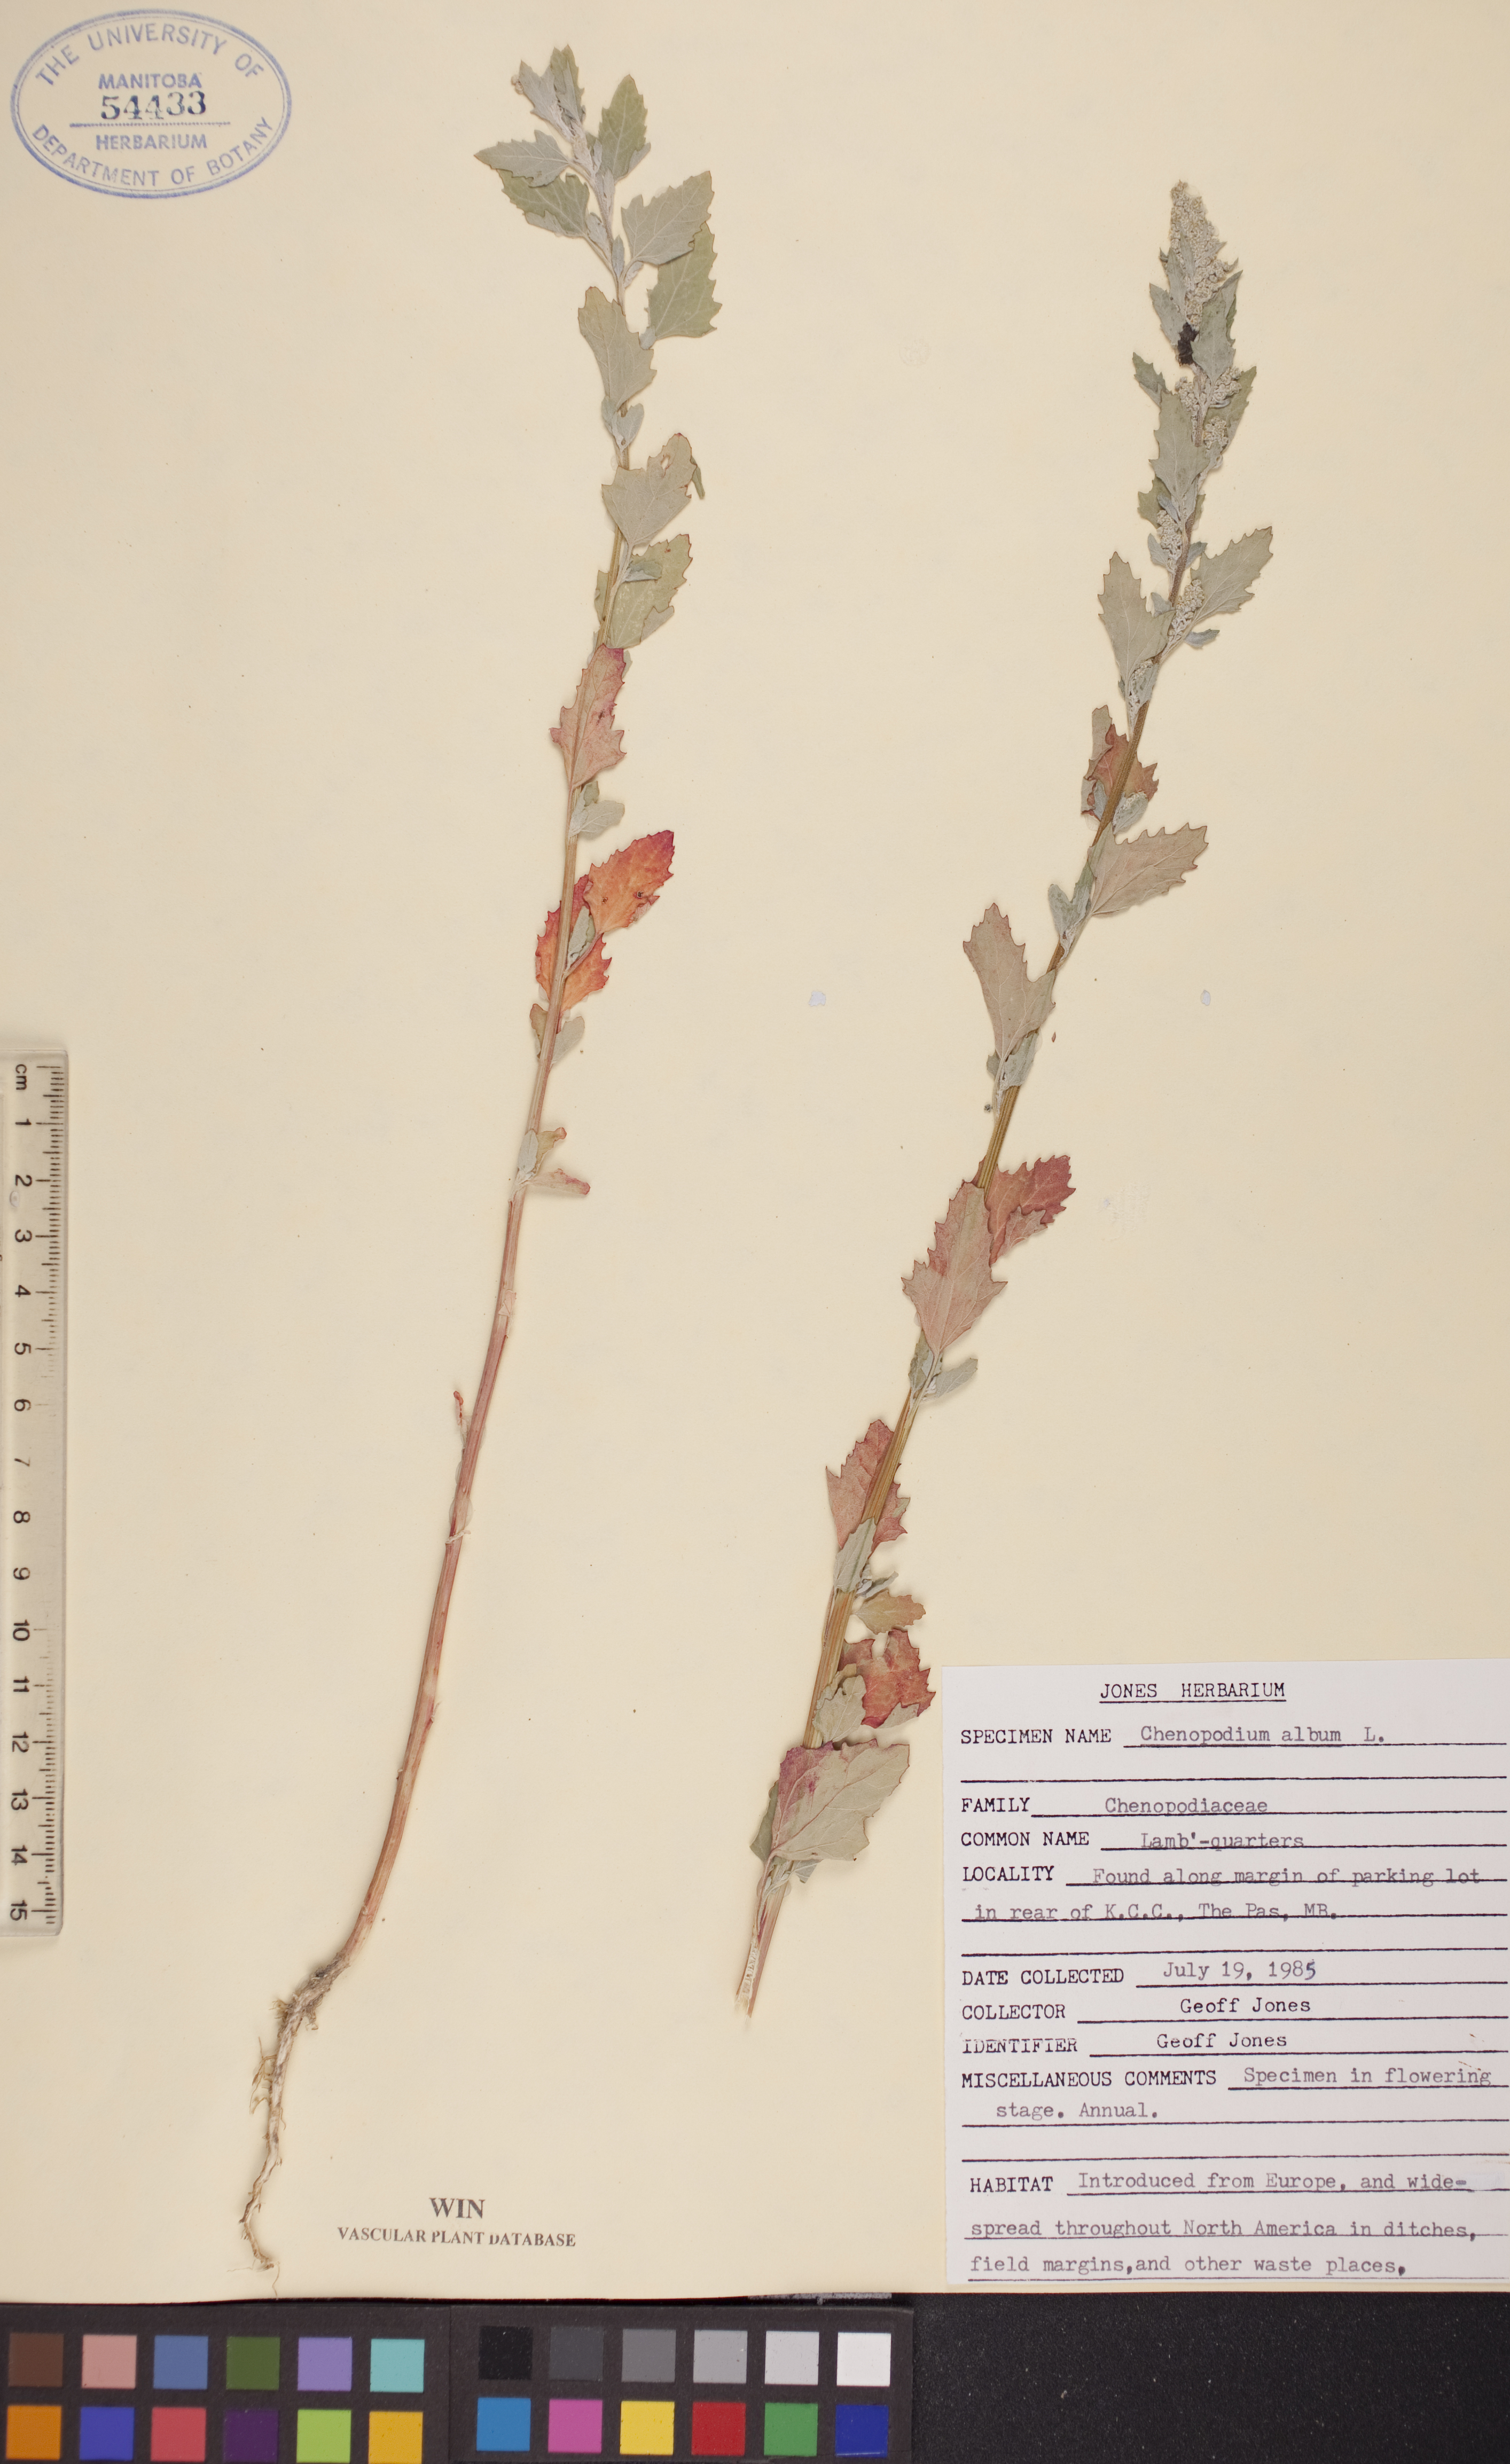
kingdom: Plantae
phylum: Tracheophyta
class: Magnoliopsida
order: Caryophyllales
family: Amaranthaceae
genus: Chenopodium
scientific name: Chenopodium album
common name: Fat-hen
